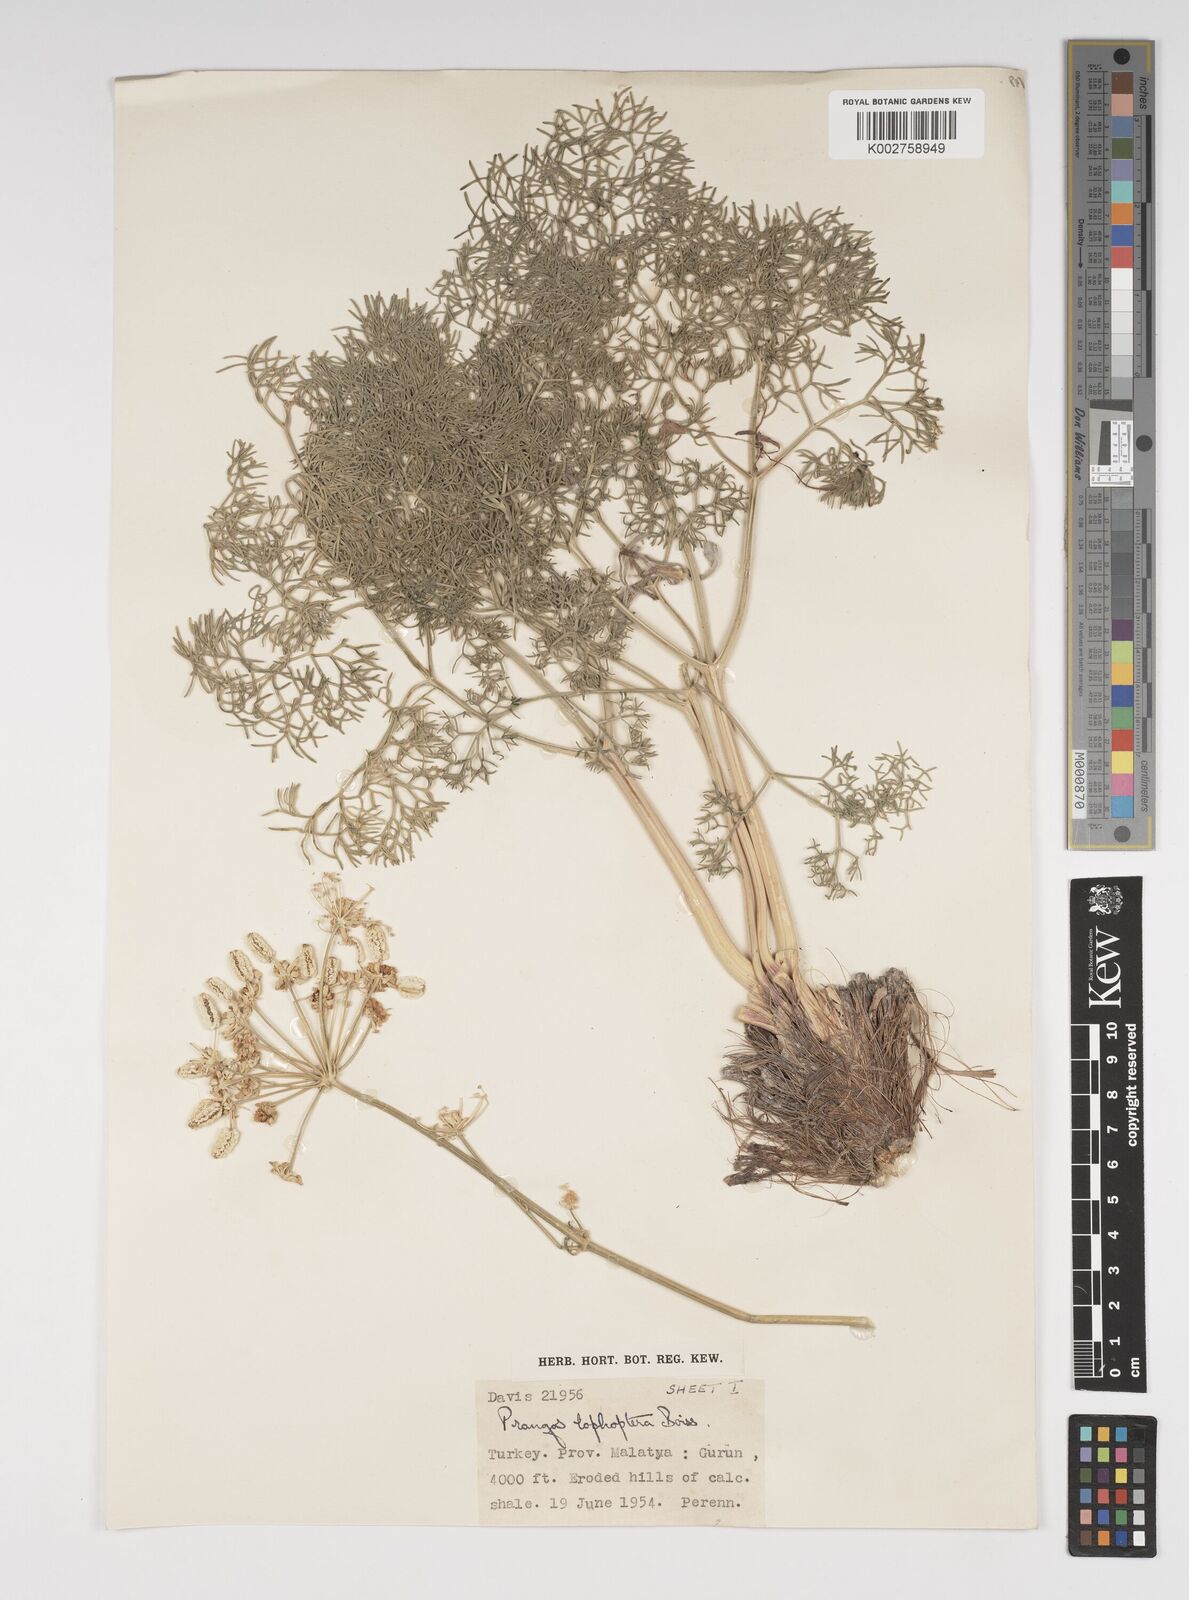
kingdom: Plantae
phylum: Tracheophyta
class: Magnoliopsida
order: Apiales
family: Apiaceae
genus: Prangos
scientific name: Prangos pabularia
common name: Yugan
